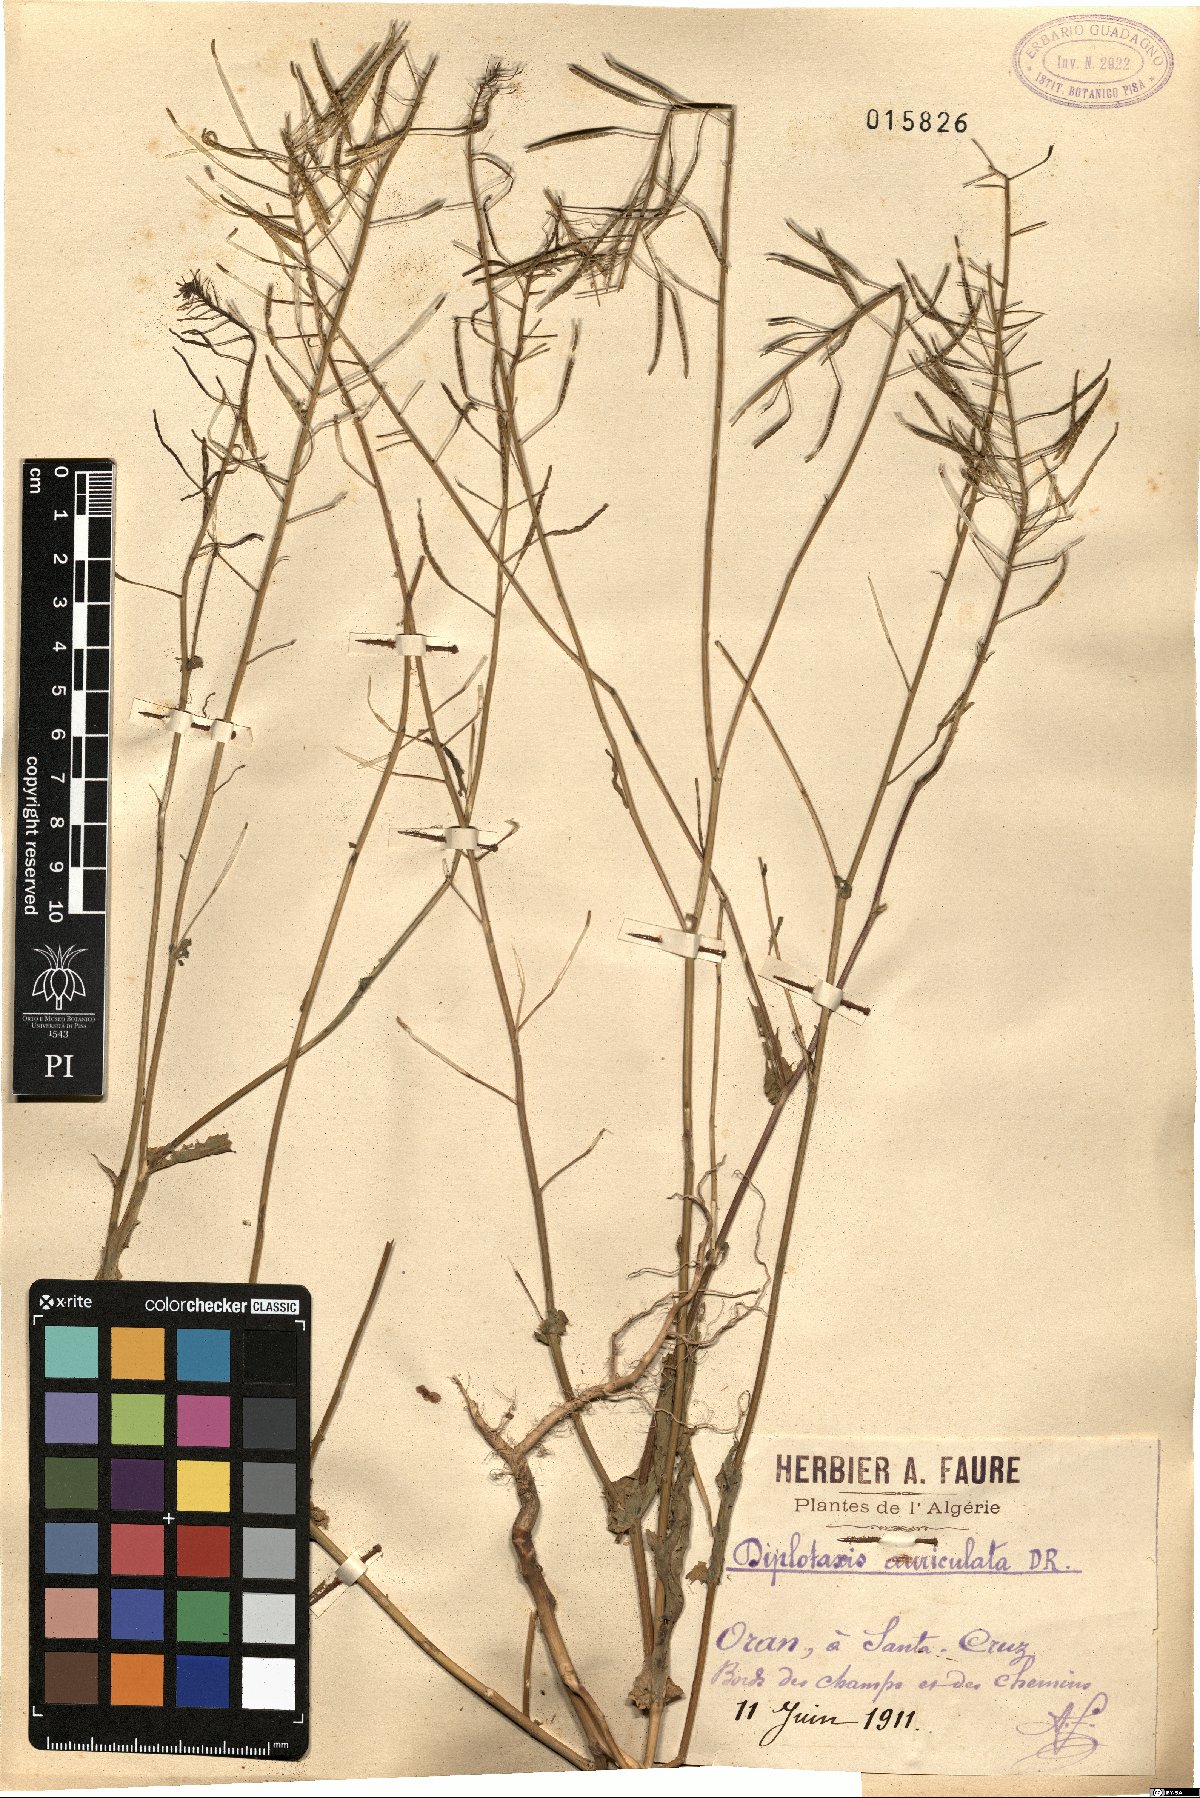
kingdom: Plantae
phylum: Tracheophyta
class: Magnoliopsida
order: Brassicales
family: Brassicaceae
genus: Diplotaxis
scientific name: Diplotaxis tenuisiliqua
